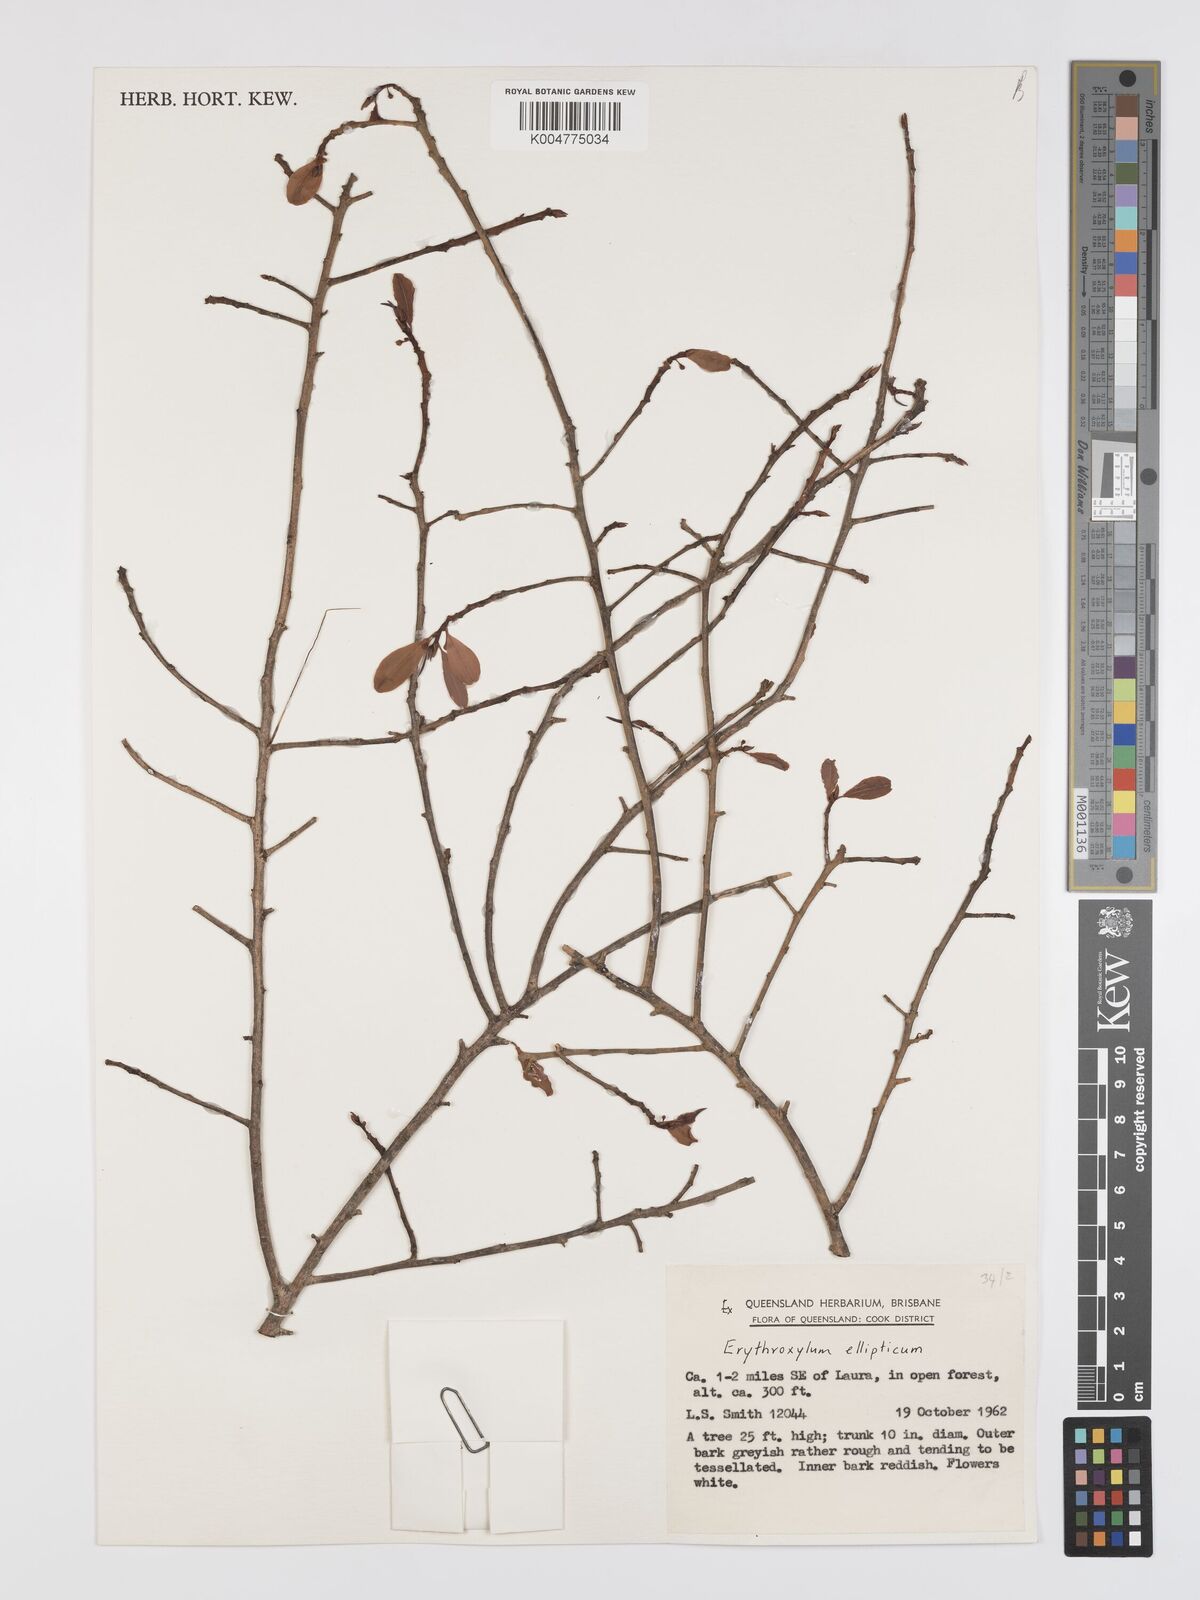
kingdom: Plantae
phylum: Tracheophyta
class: Magnoliopsida
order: Malpighiales
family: Erythroxylaceae
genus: Erythroxylum
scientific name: Erythroxylum
